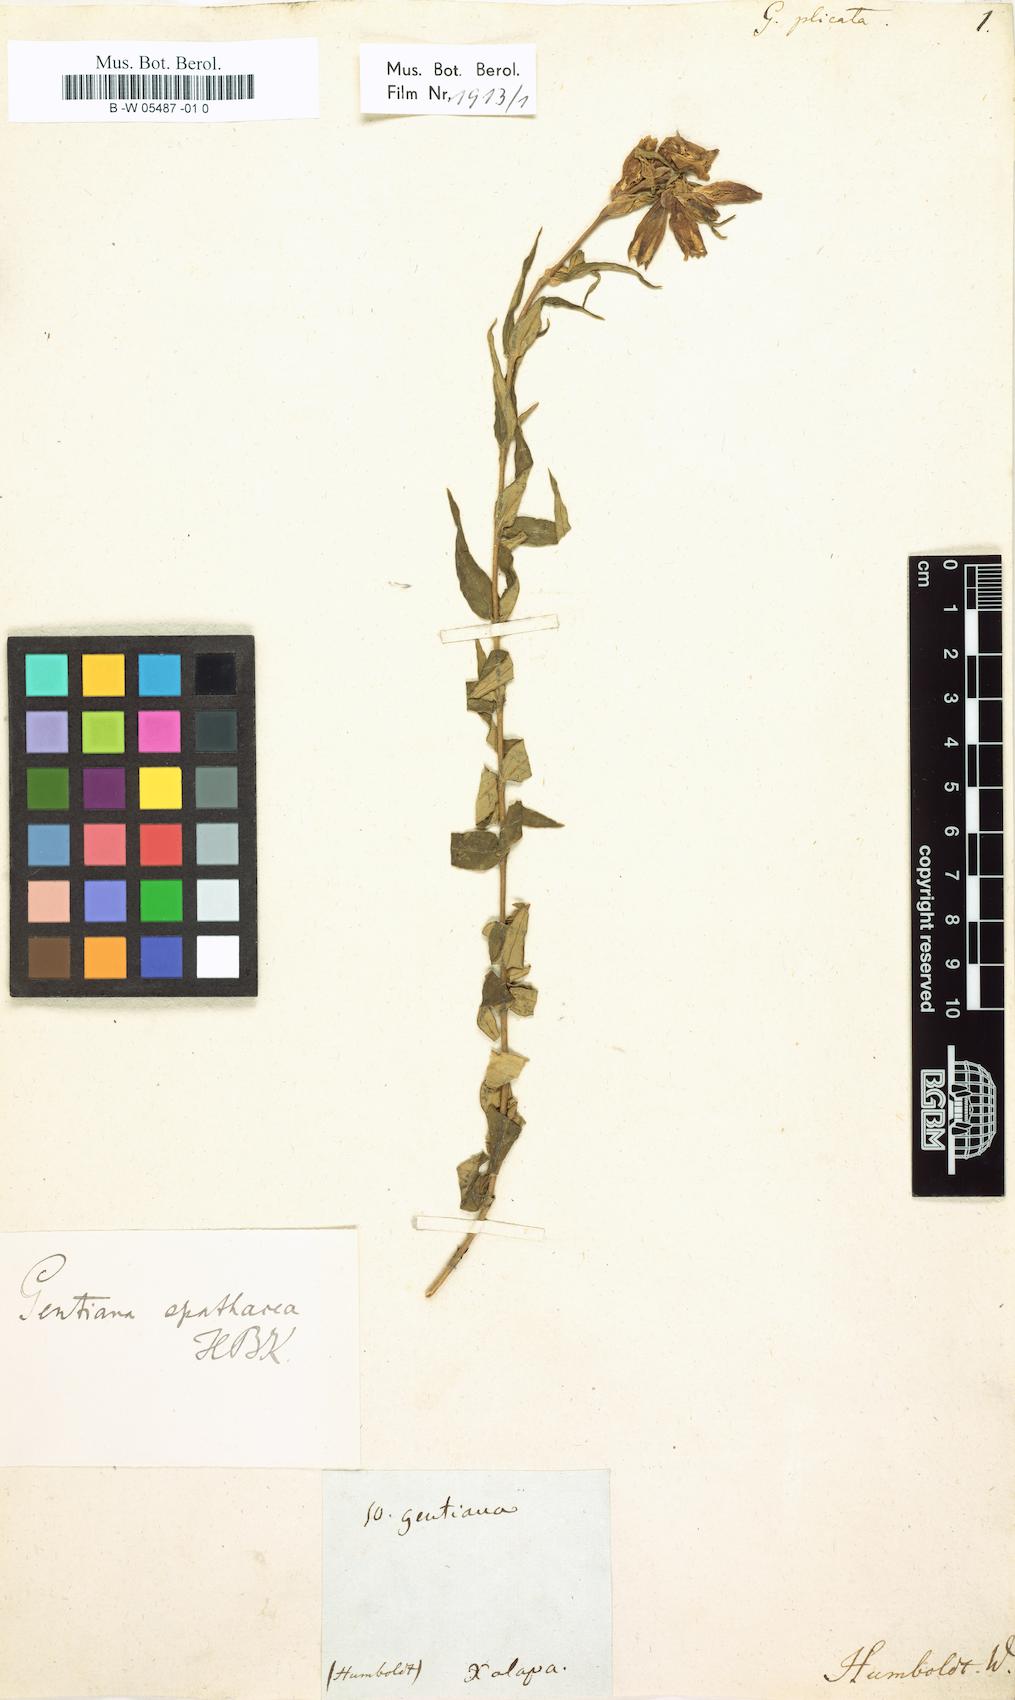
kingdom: Plantae
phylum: Tracheophyta
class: Magnoliopsida
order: Gentianales
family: Gentianaceae
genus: Gentiana
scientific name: Gentiana spathacea
